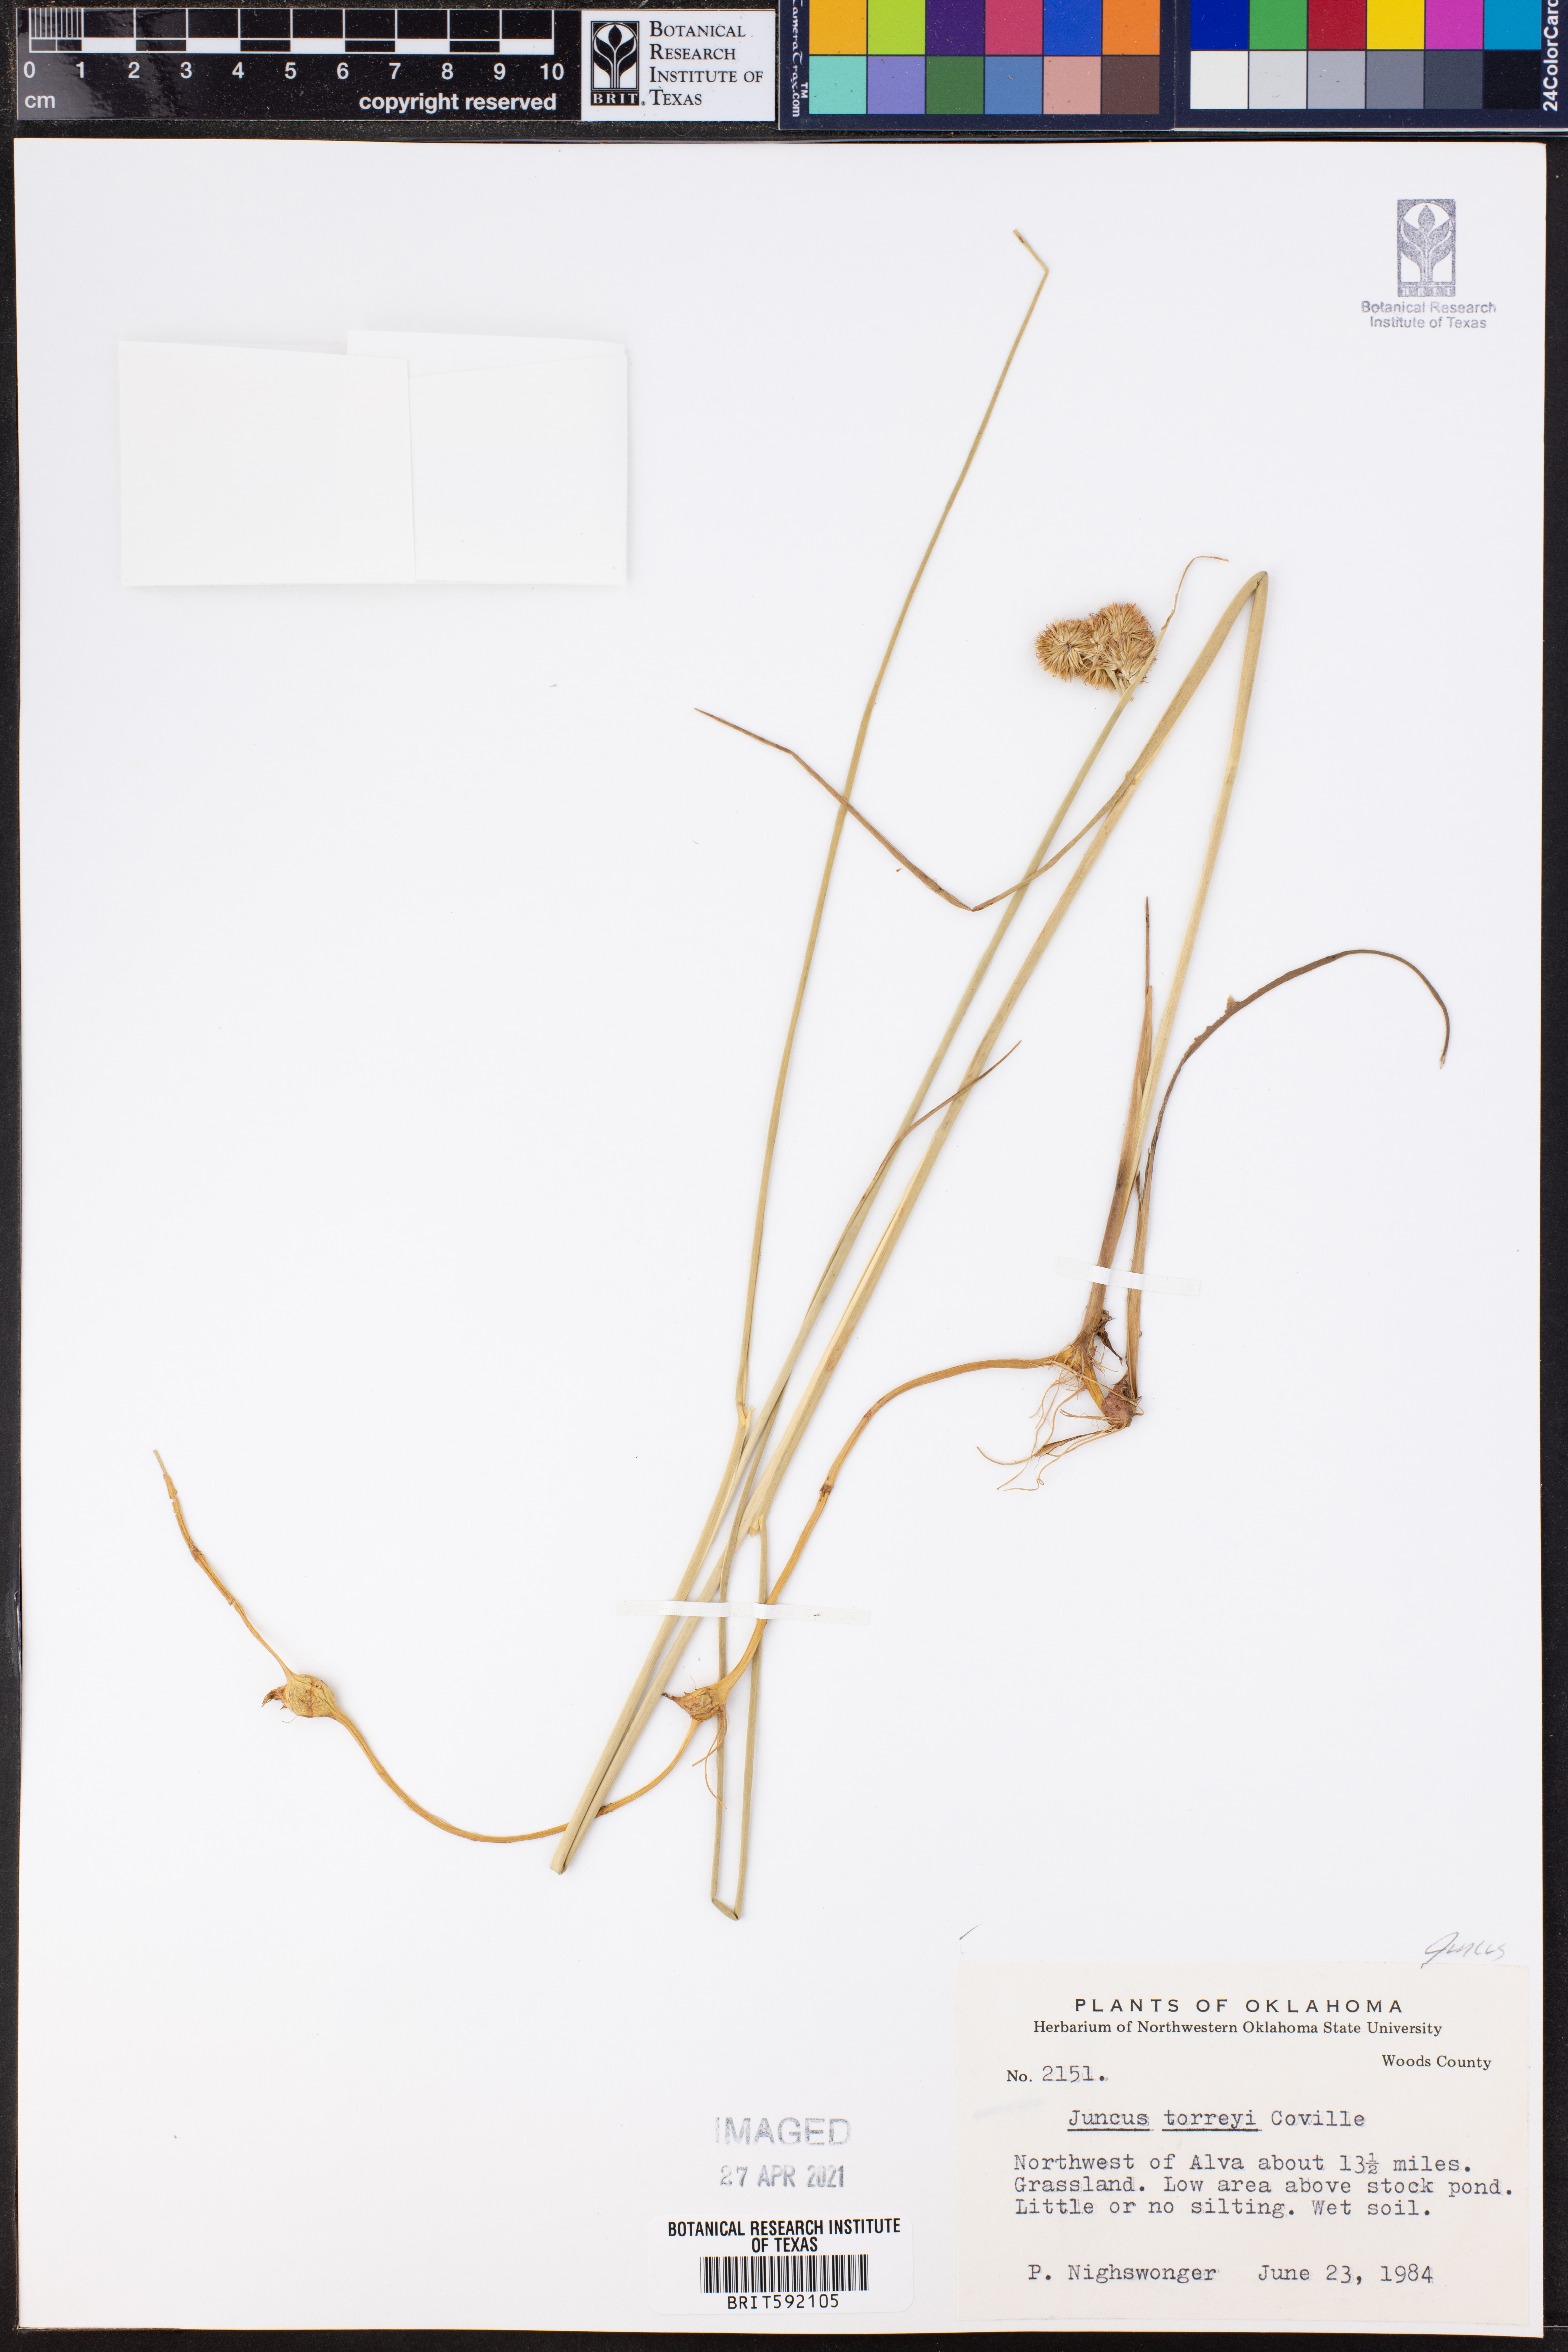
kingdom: Plantae
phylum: Tracheophyta
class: Liliopsida
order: Poales
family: Juncaceae
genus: Juncus
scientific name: Juncus torreyi
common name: Torrey's rush
